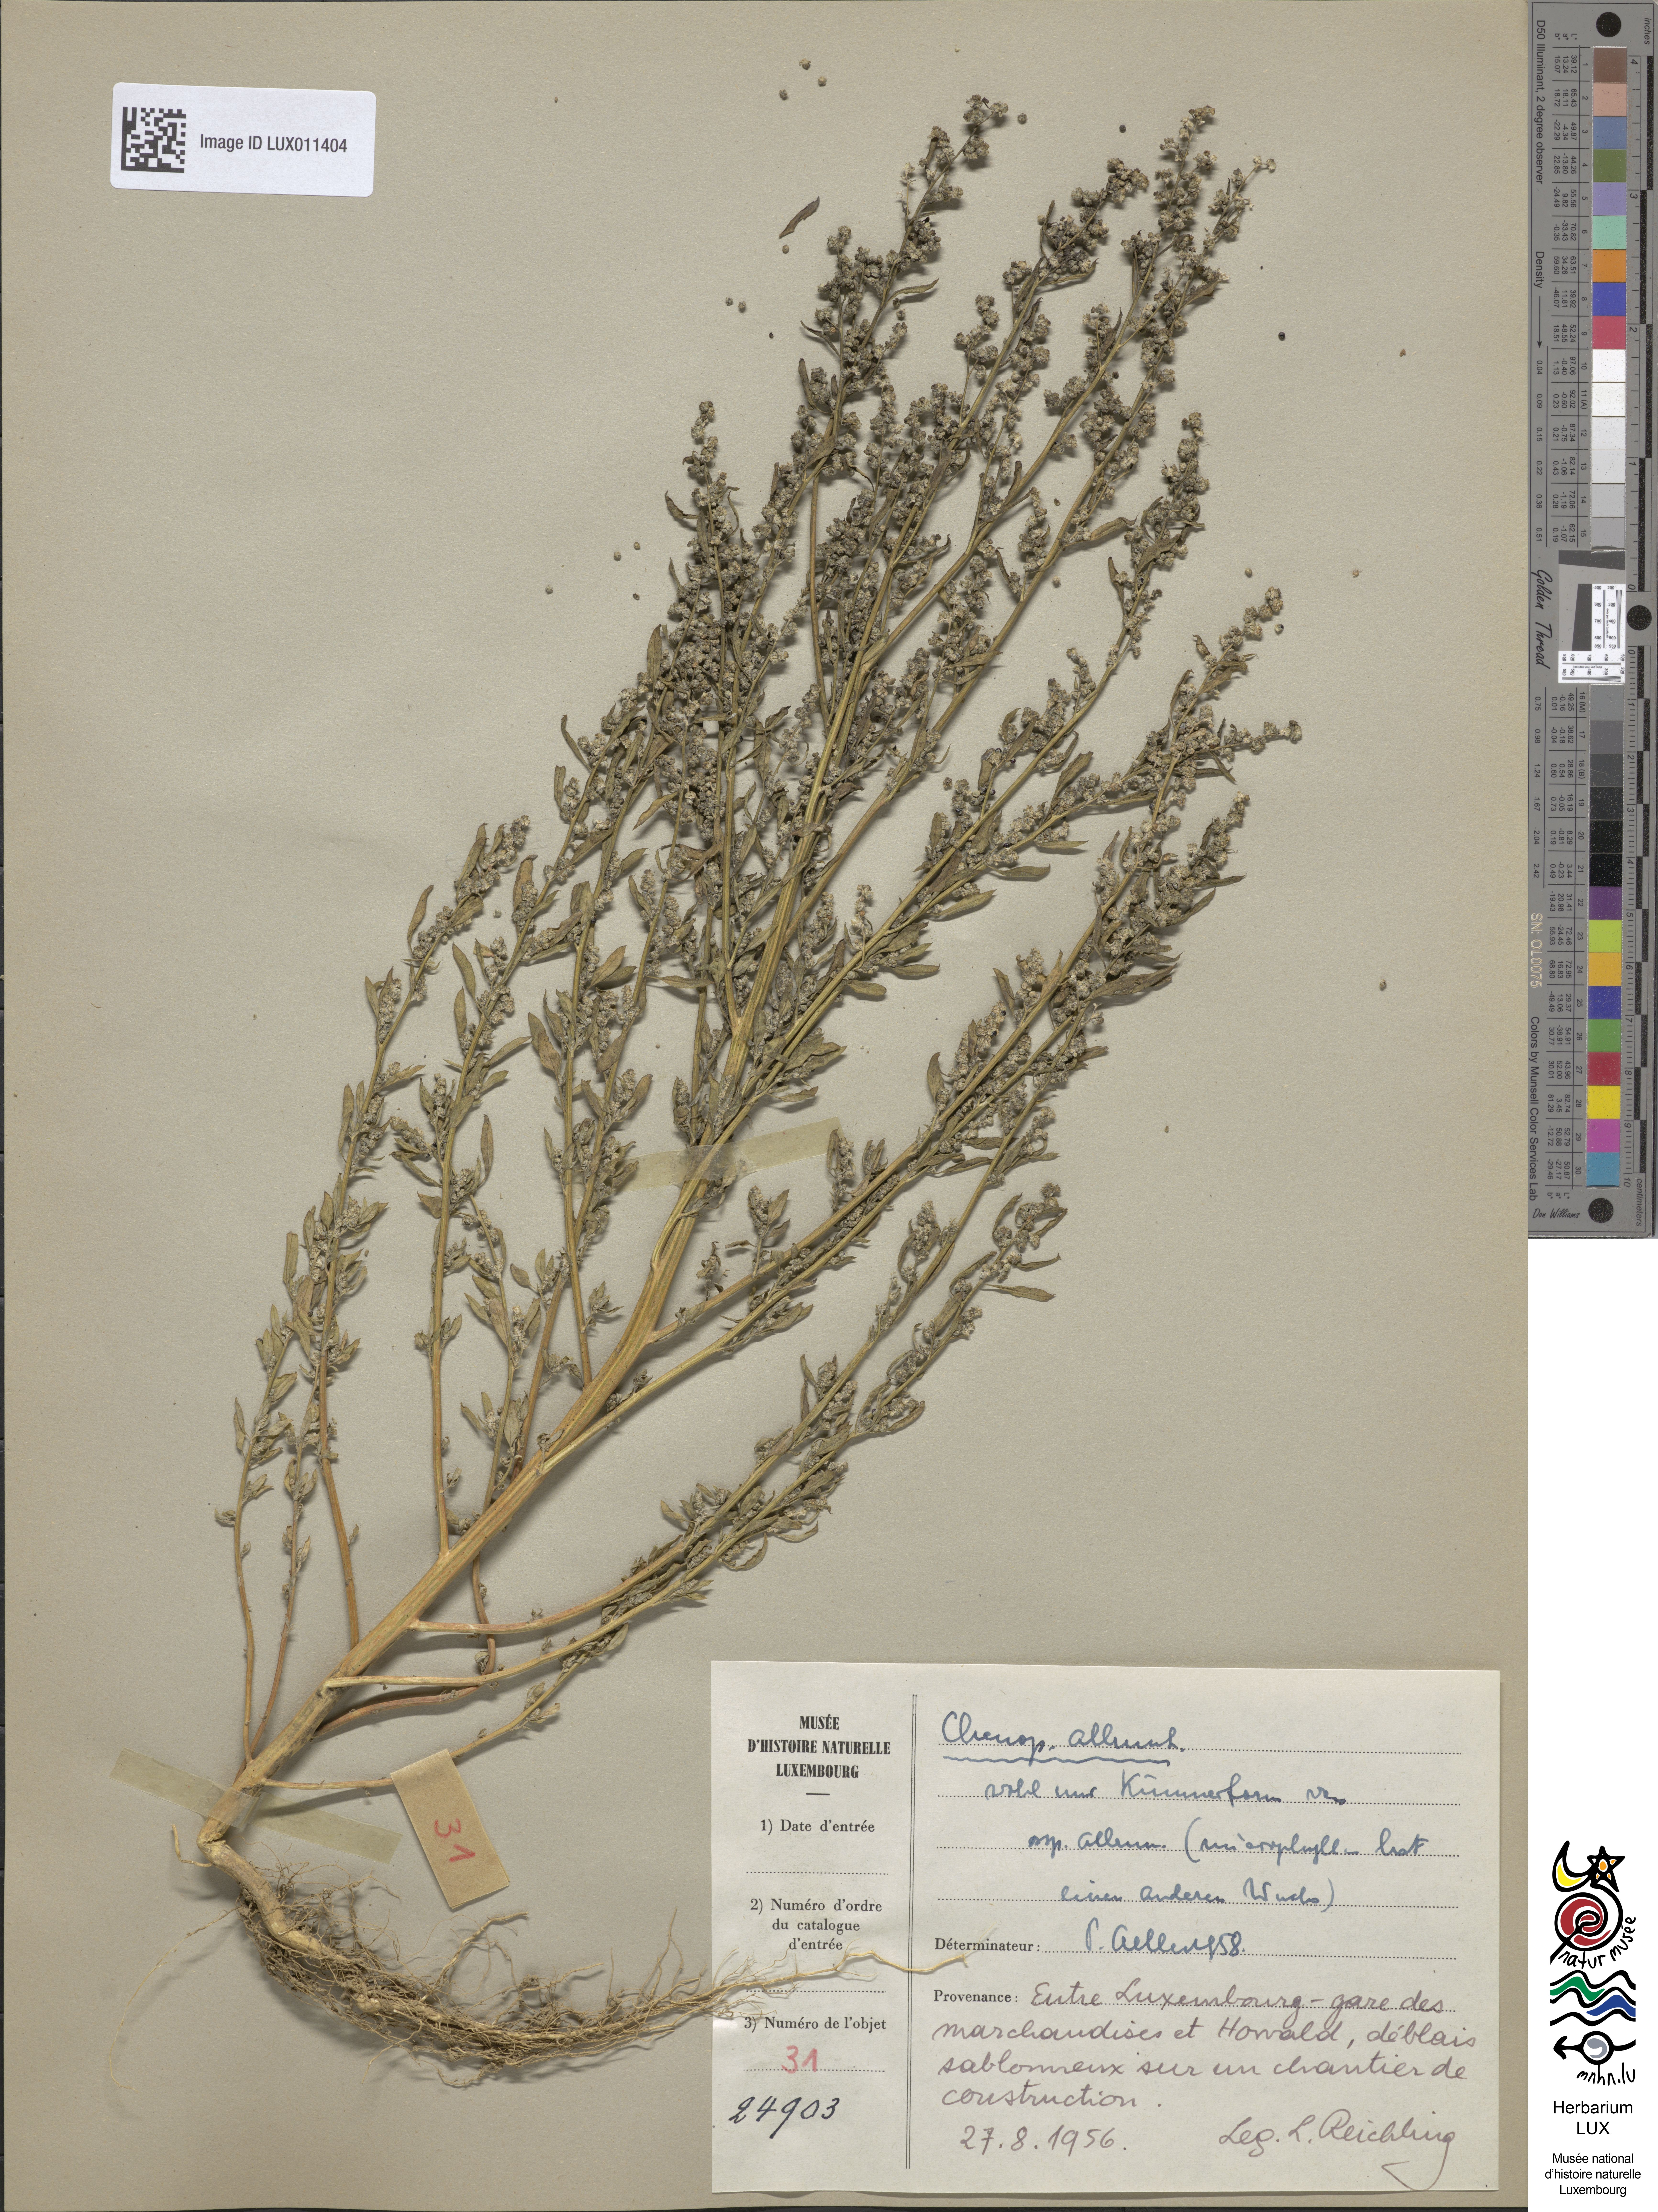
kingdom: Plantae
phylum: Tracheophyta
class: Magnoliopsida
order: Caryophyllales
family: Amaranthaceae
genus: Chenopodium
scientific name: Chenopodium album
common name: Fat-hen
